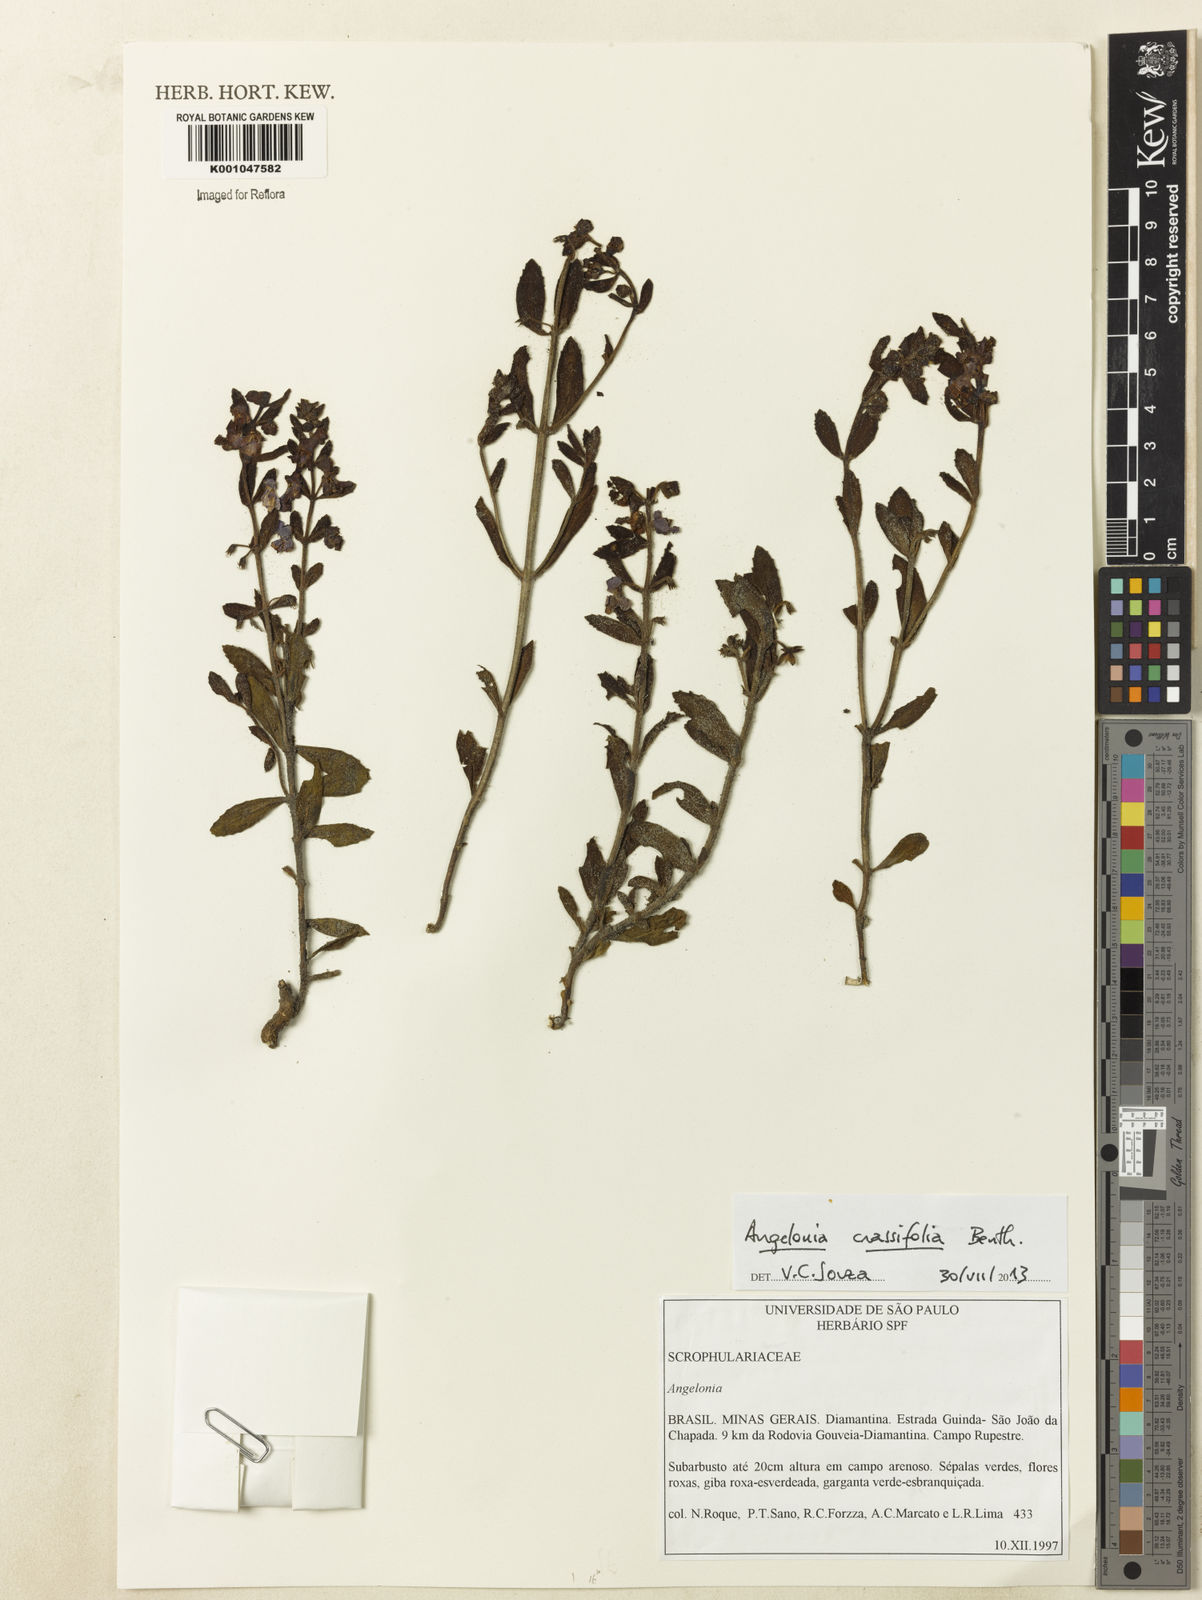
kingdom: Plantae
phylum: Tracheophyta
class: Magnoliopsida
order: Lamiales
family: Plantaginaceae
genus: Angelonia
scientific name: Angelonia crassifolia
